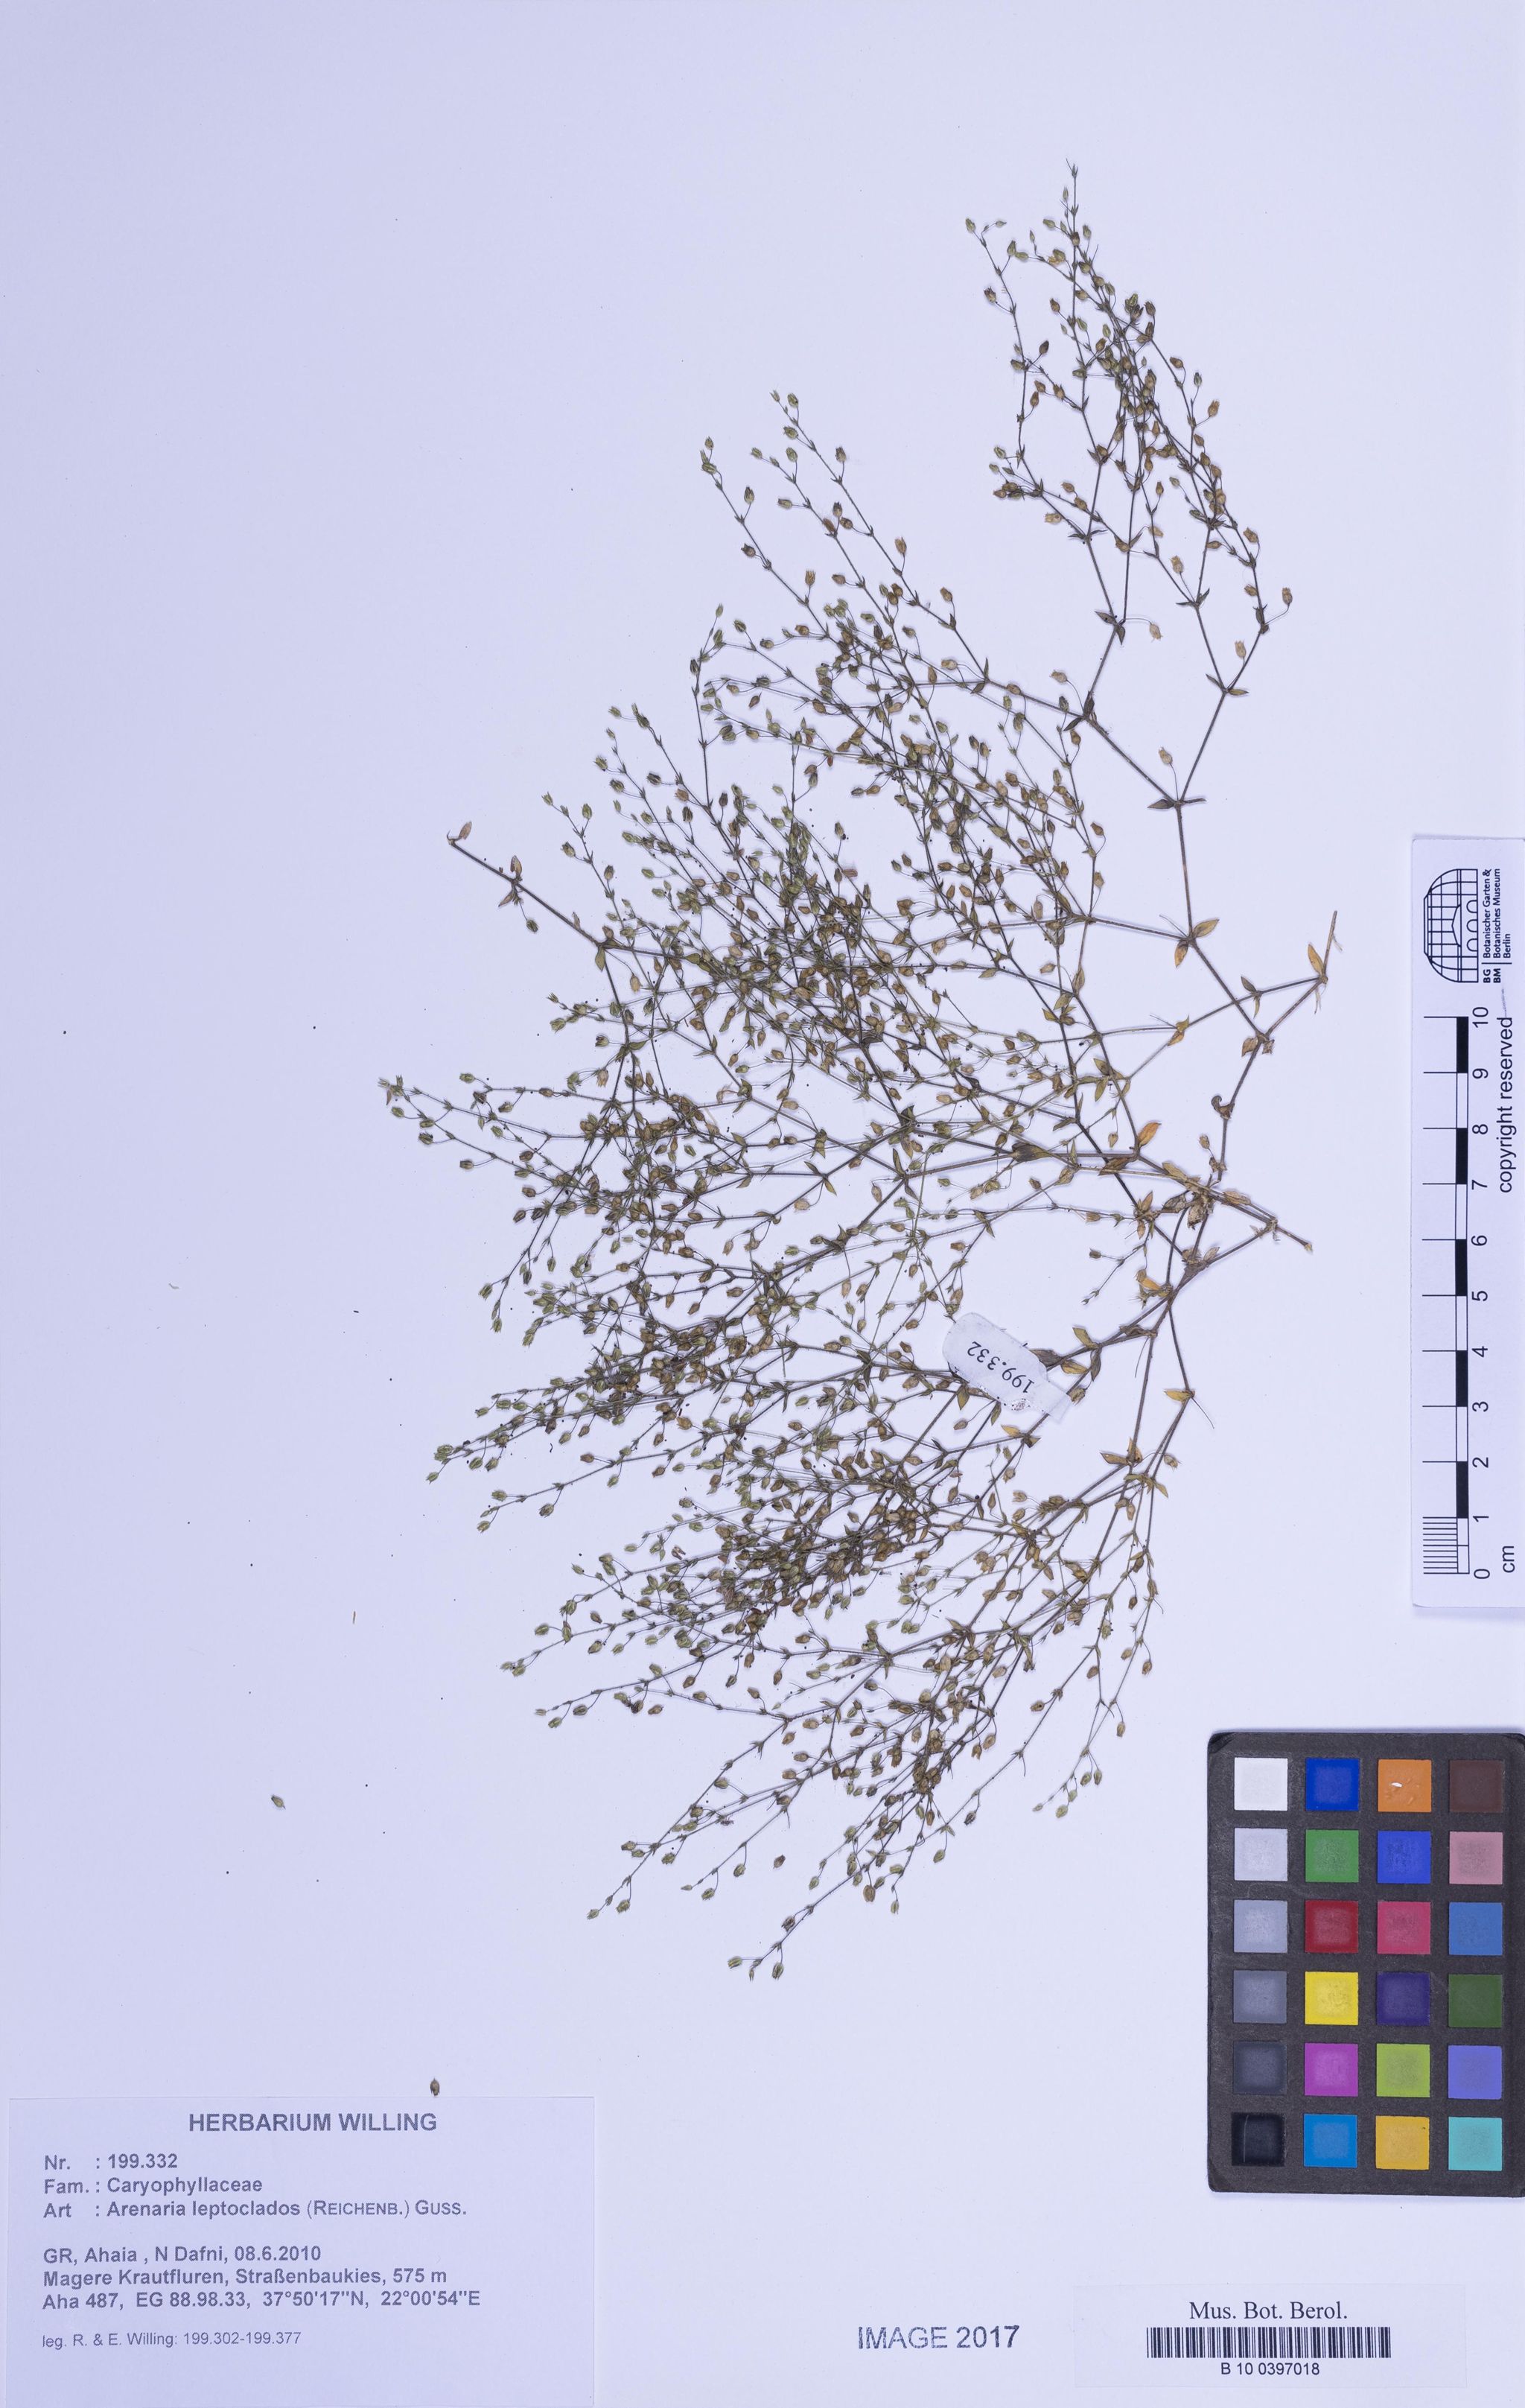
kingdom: Plantae
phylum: Tracheophyta
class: Magnoliopsida
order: Caryophyllales
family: Caryophyllaceae
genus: Arenaria
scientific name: Arenaria leptoclados
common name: Thyme-leaved sandwort
